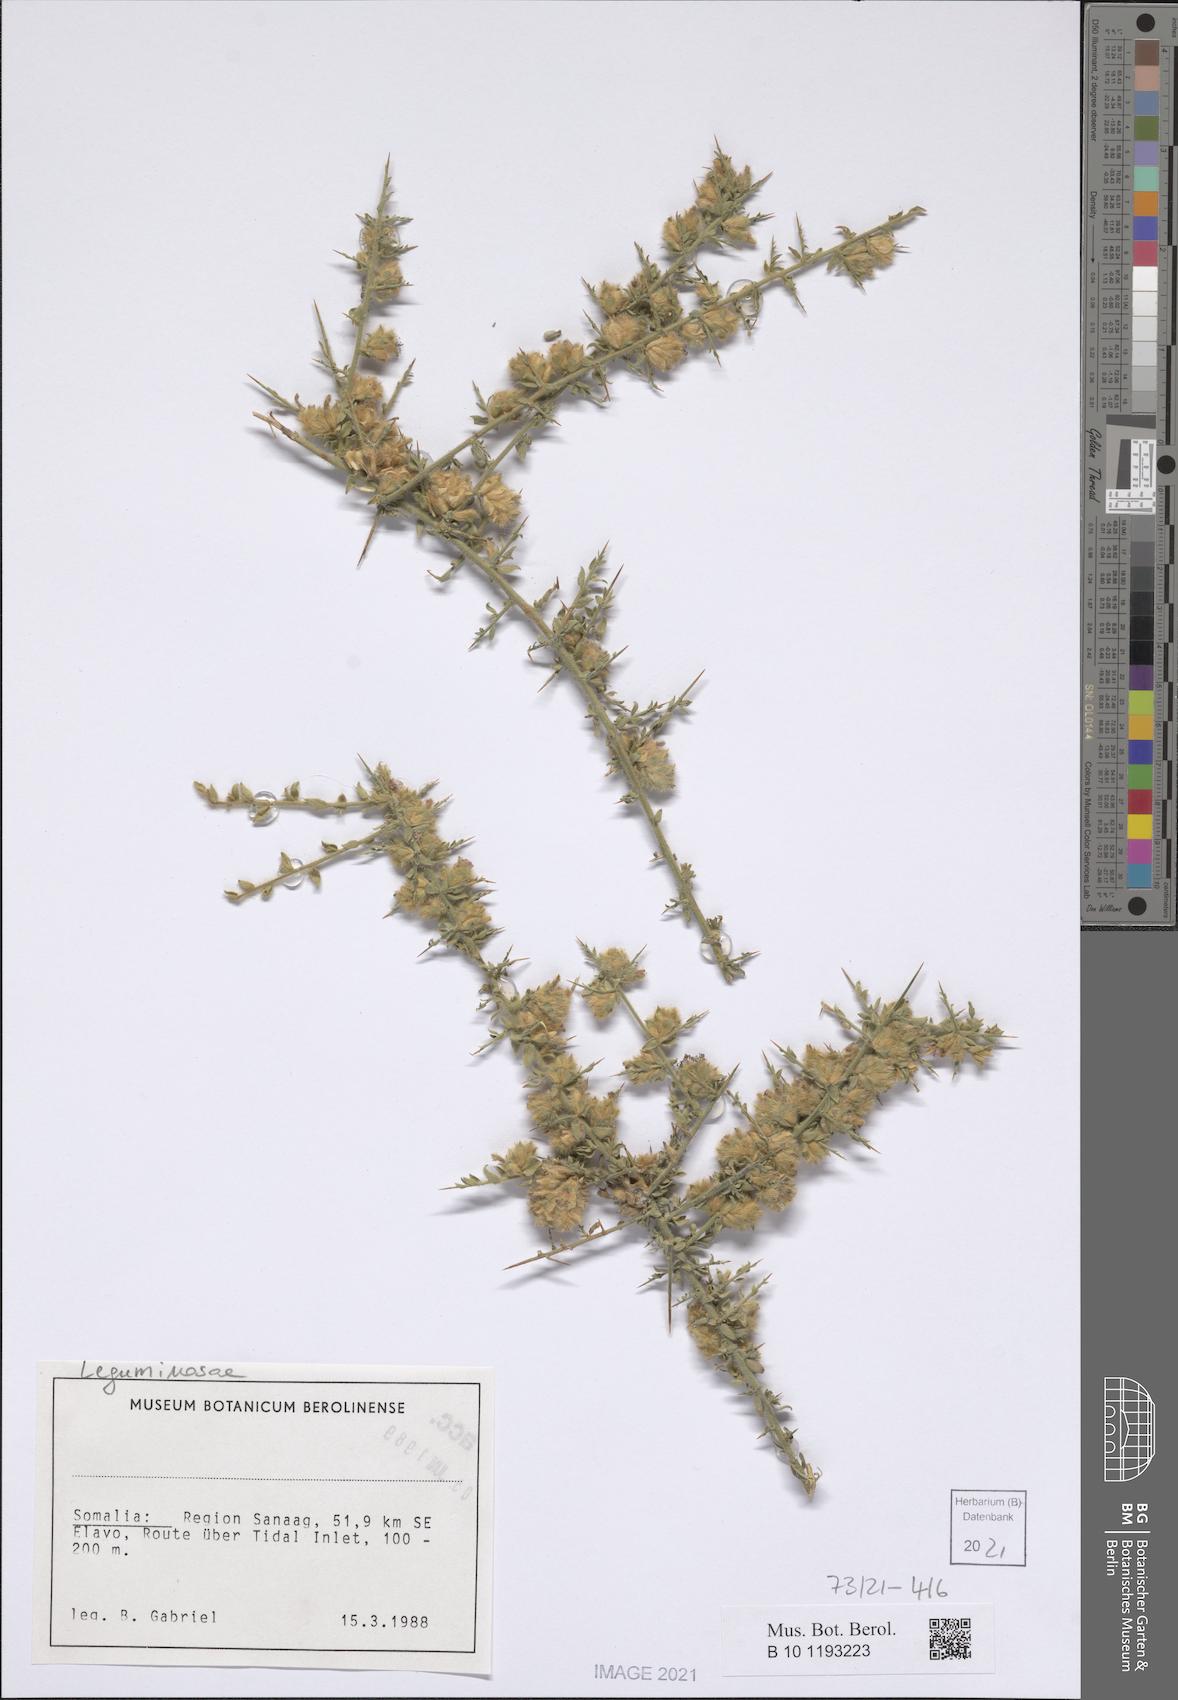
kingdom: Plantae
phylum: Tracheophyta
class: Magnoliopsida
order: Solanales
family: Convolvulaceae
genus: Convolvulus
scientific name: Convolvulus hystrix
